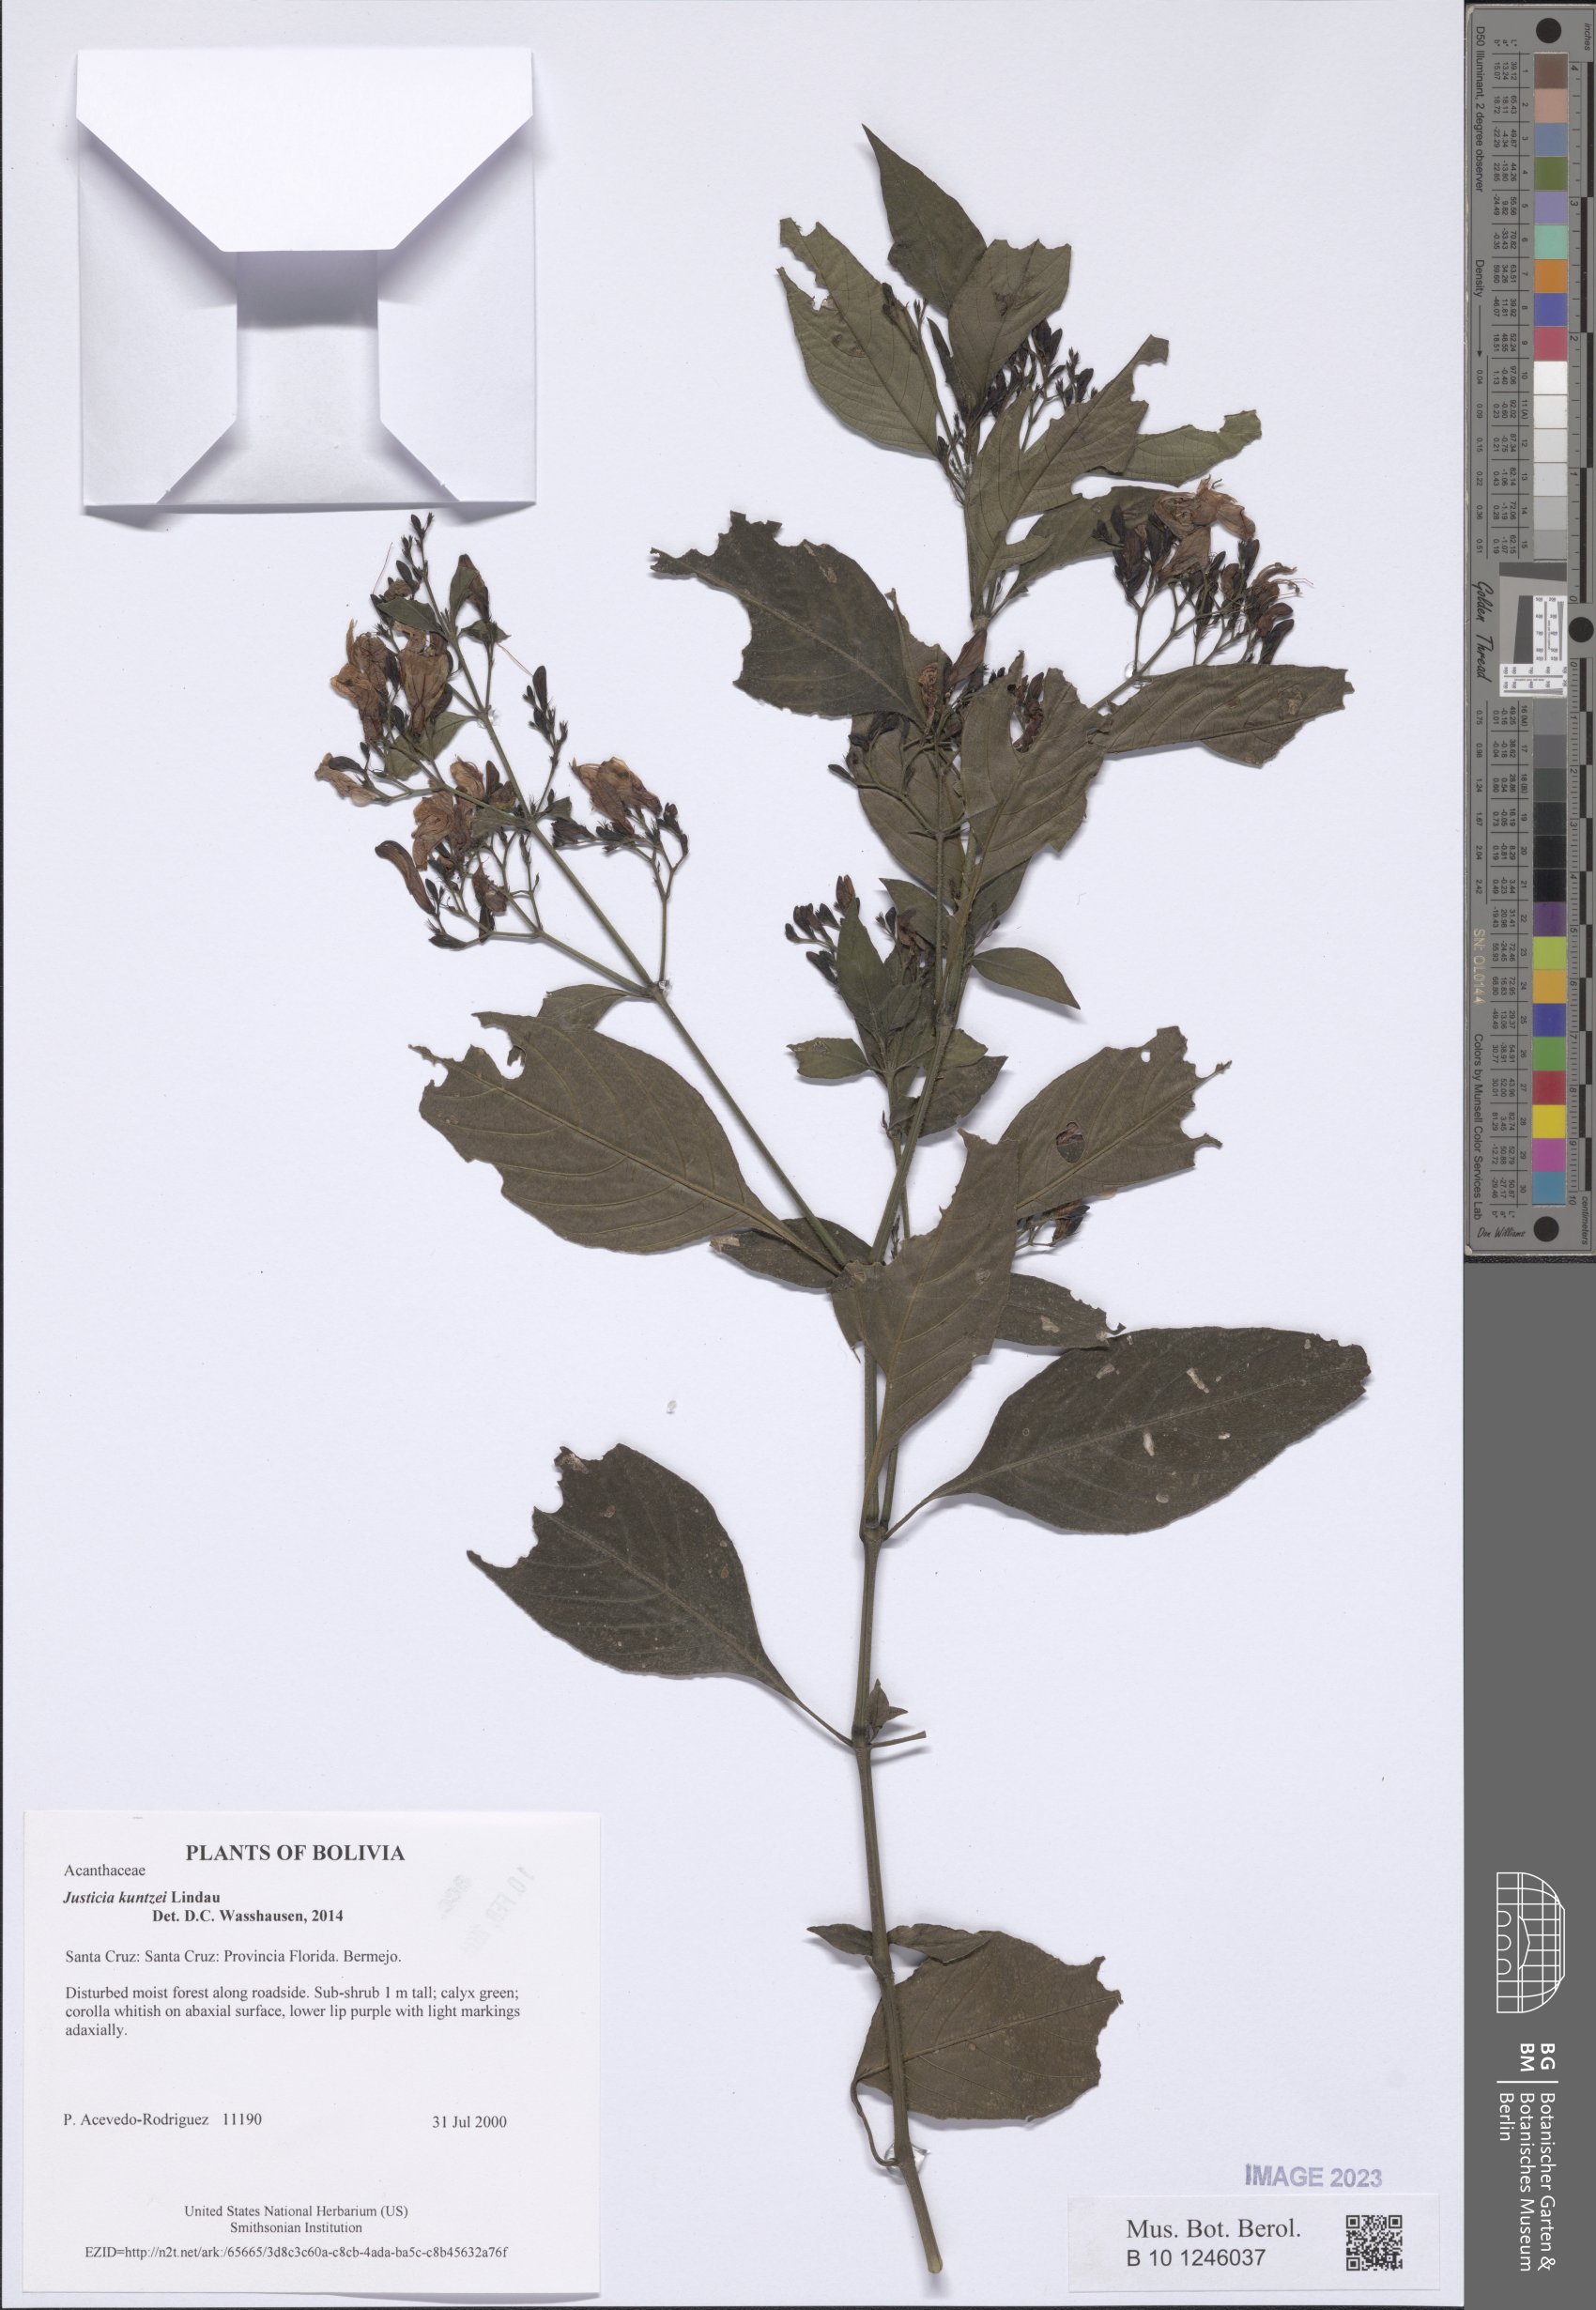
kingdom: Plantae
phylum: Tracheophyta
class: Magnoliopsida
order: Lamiales
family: Acanthaceae
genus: Justicia
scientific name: Justicia kuntzei
